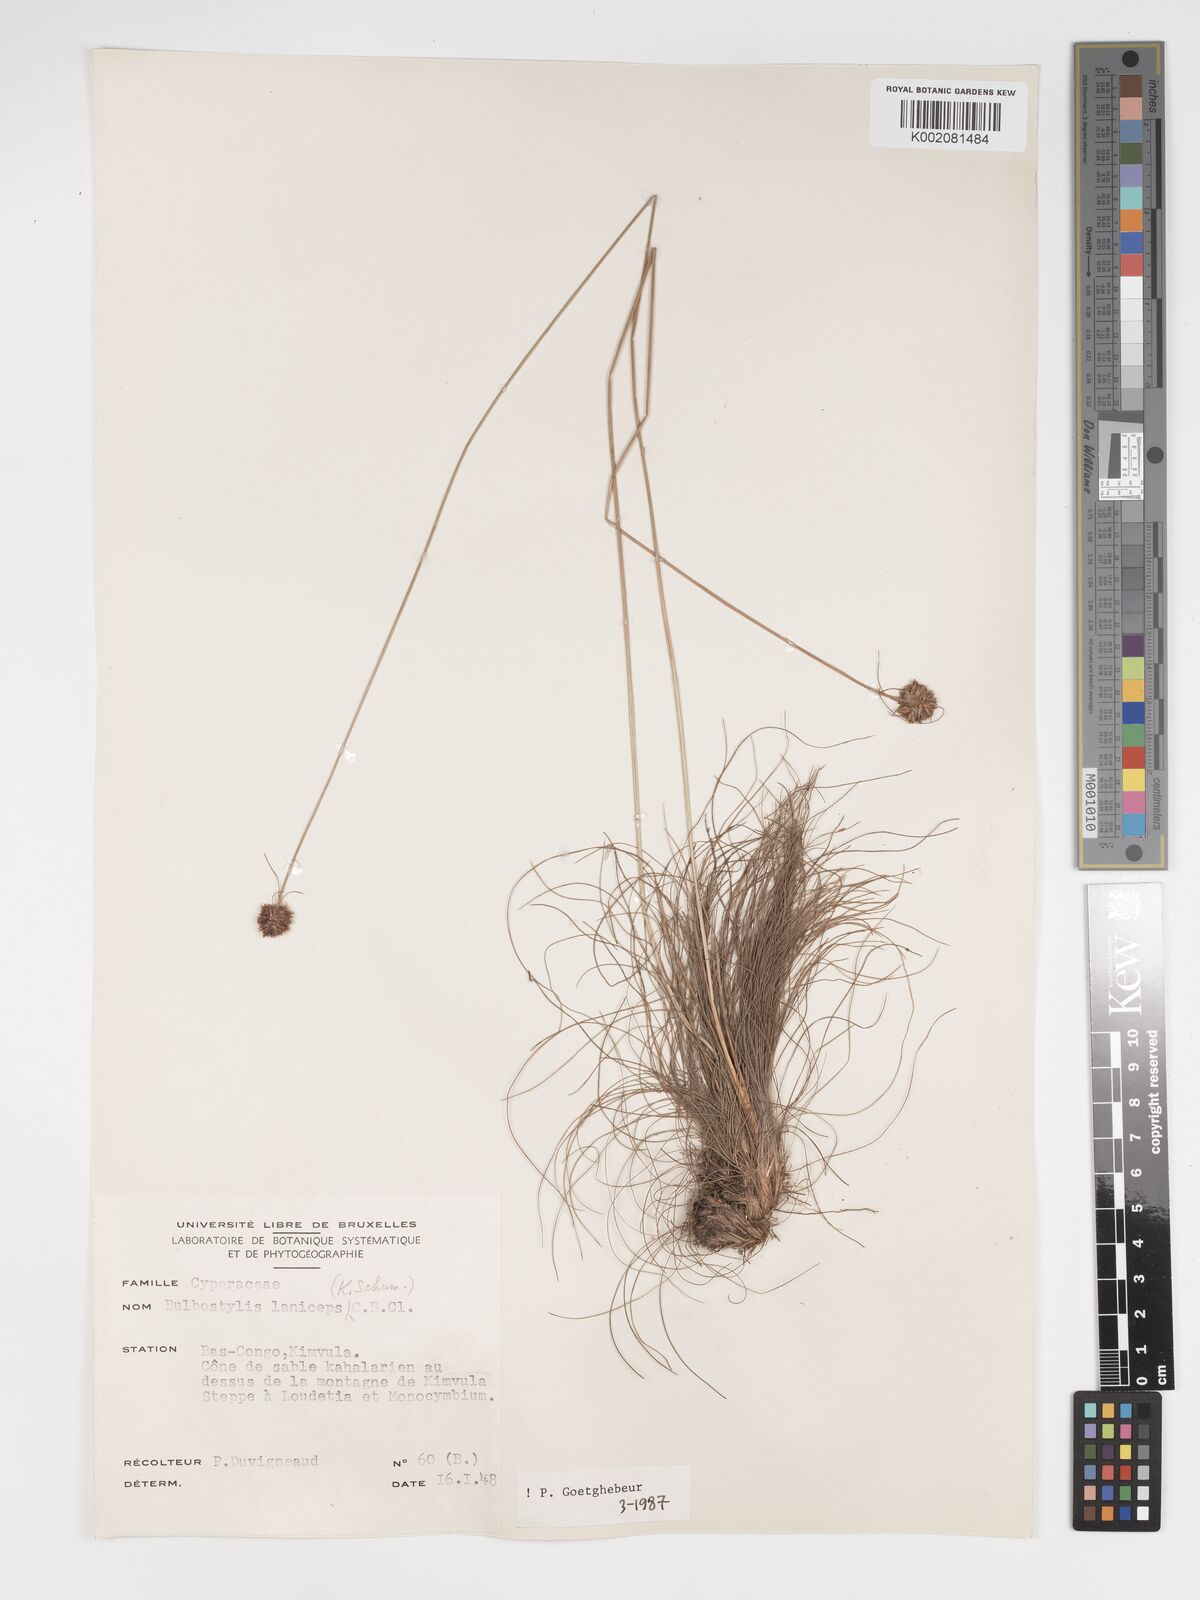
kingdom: Plantae
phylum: Tracheophyta
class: Liliopsida
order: Poales
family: Cyperaceae
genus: Bulbostylis
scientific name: Bulbostylis laniceps
